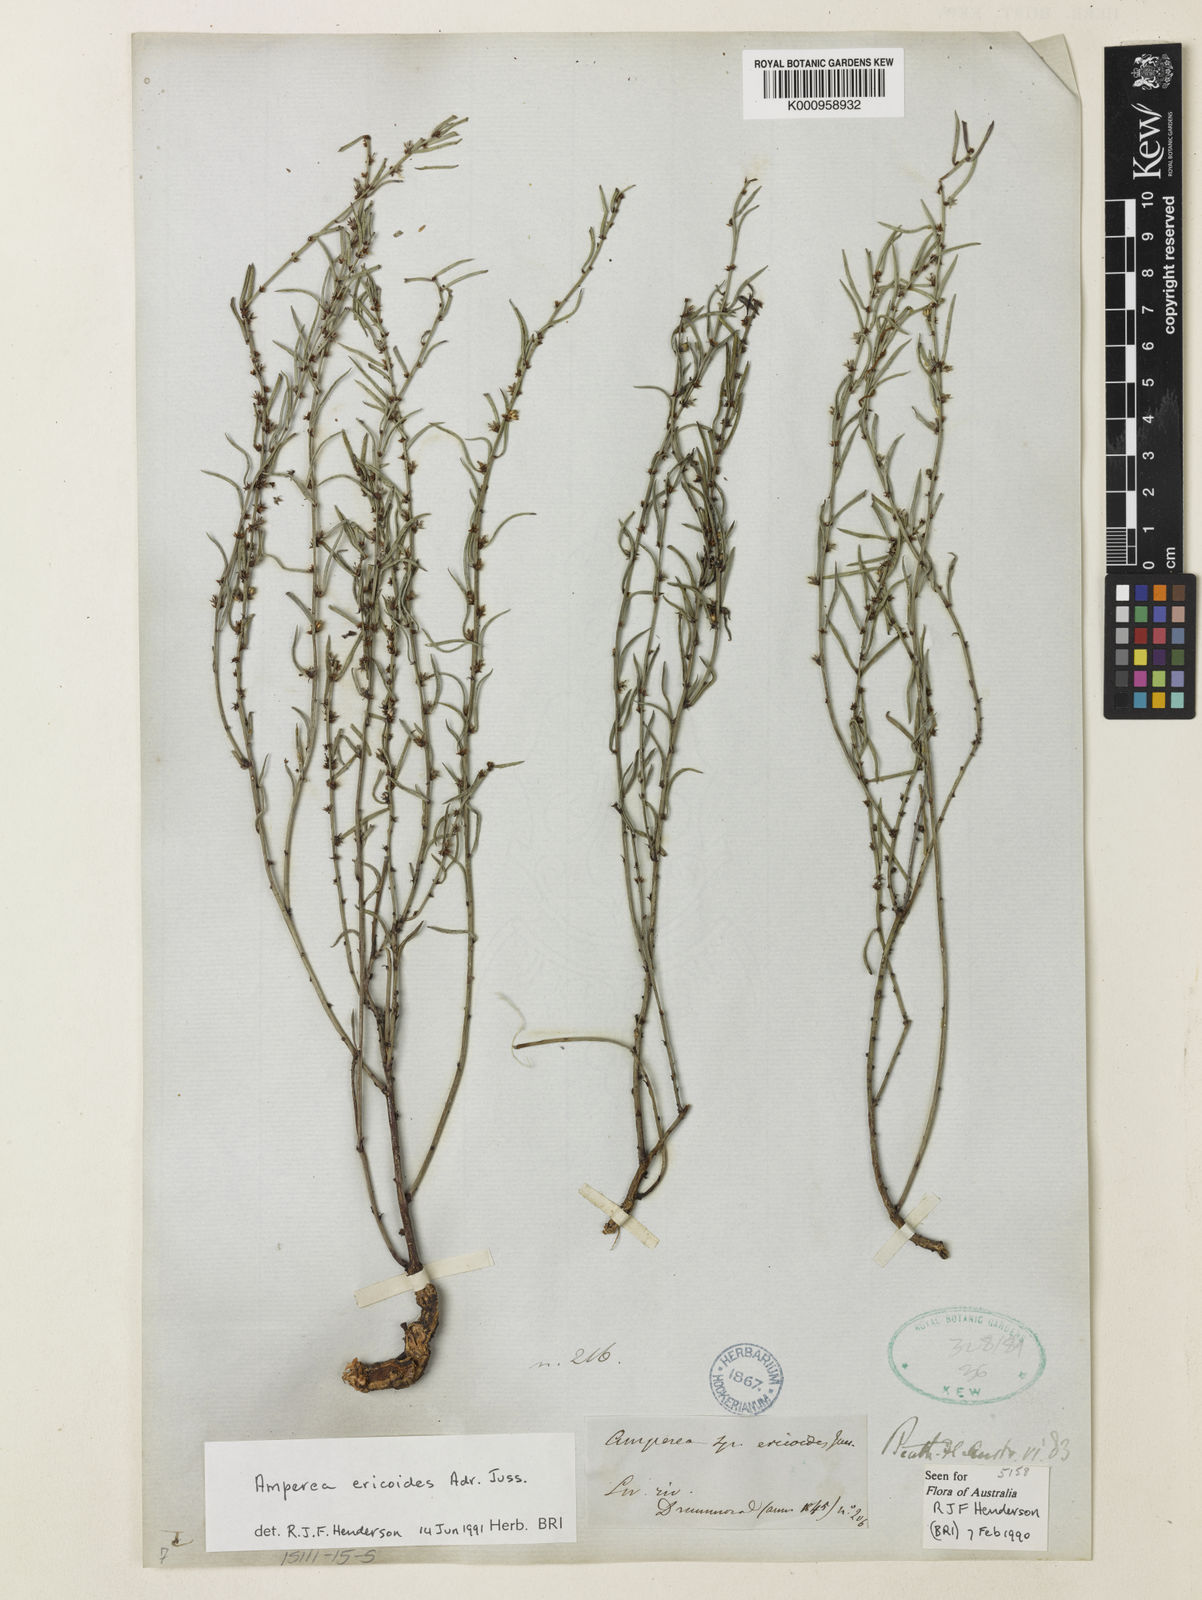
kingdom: Plantae
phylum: Tracheophyta
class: Magnoliopsida
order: Malpighiales
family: Euphorbiaceae
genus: Amperea
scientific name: Amperea ericoides
